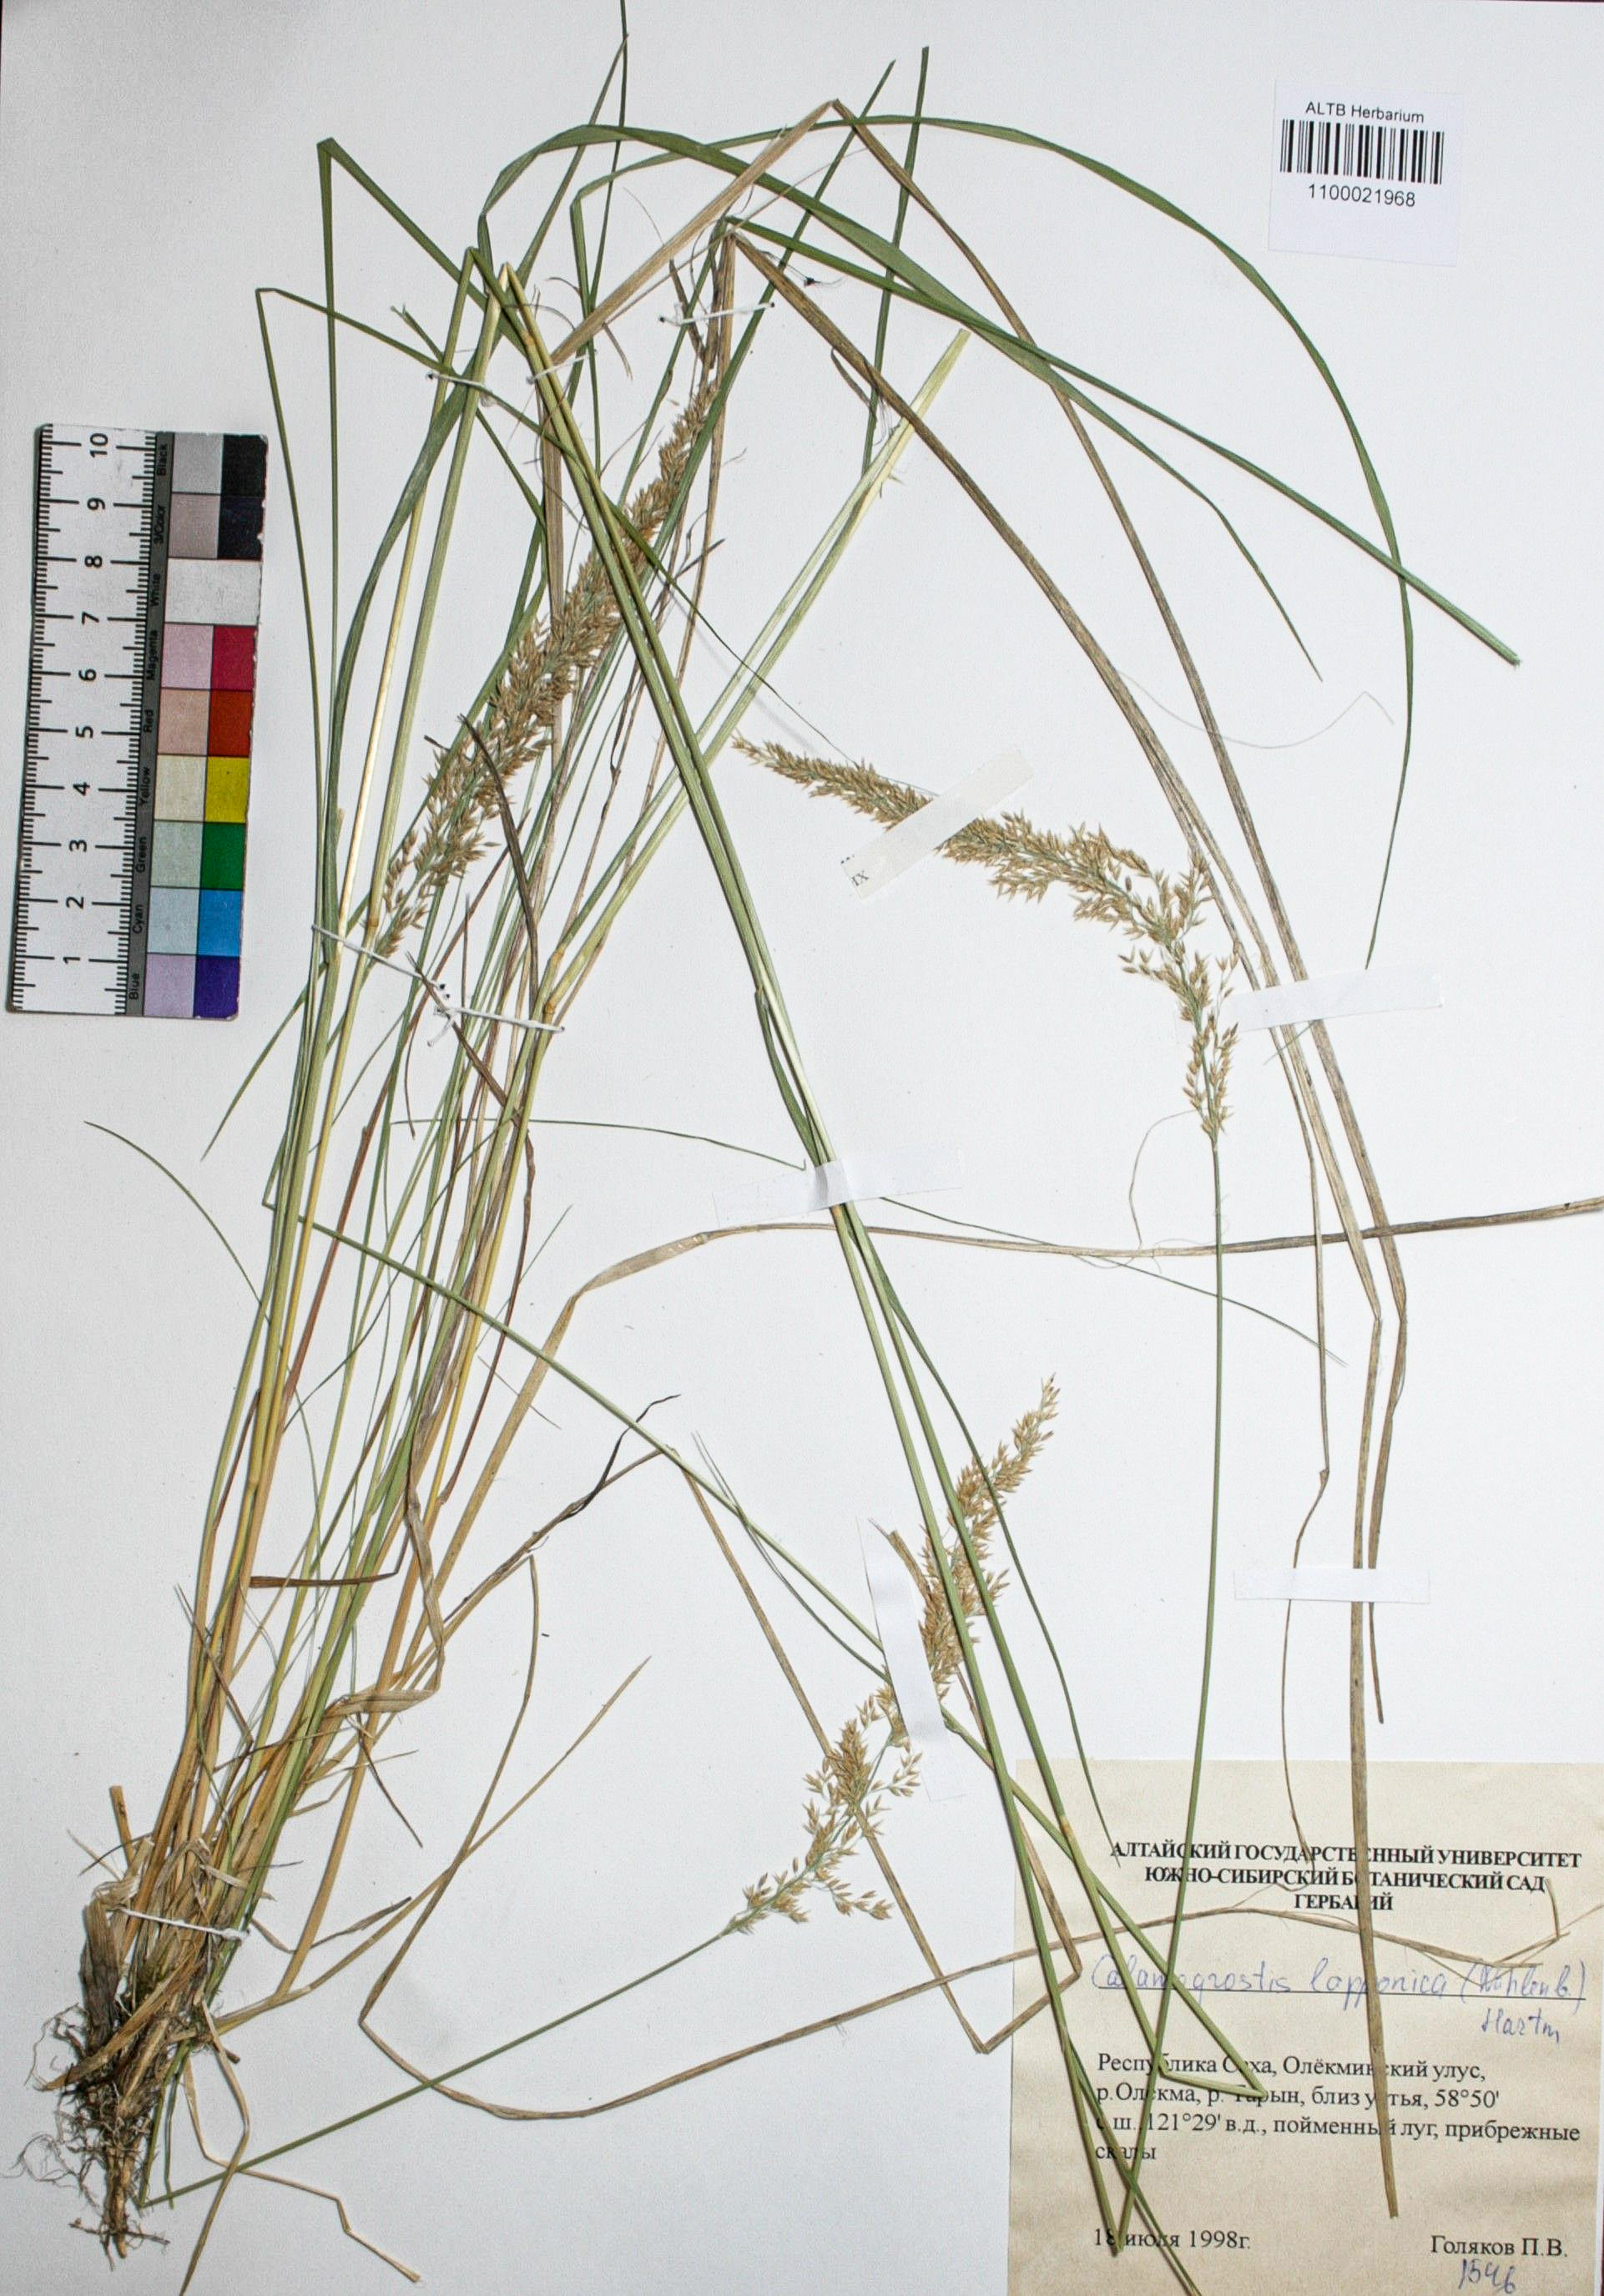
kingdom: Plantae
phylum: Tracheophyta
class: Liliopsida
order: Poales
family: Poaceae
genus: Calamagrostis
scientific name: Calamagrostis lapponica
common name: Lapland reedgrass
